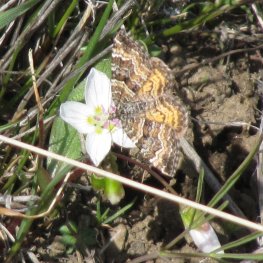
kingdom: Animalia
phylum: Arthropoda
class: Insecta
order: Lepidoptera
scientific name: Lepidoptera
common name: Butterflies
